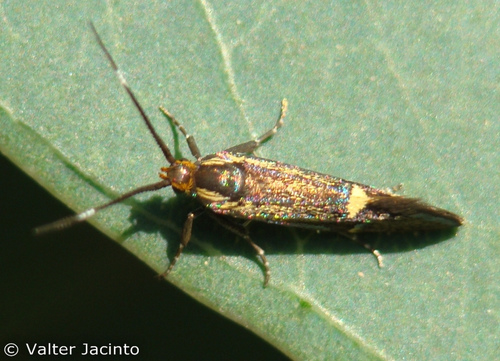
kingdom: Animalia
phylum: Arthropoda
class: Insecta
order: Lepidoptera
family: Oecophoridae
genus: Dafa
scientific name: Dafa Esperia sulphurella
